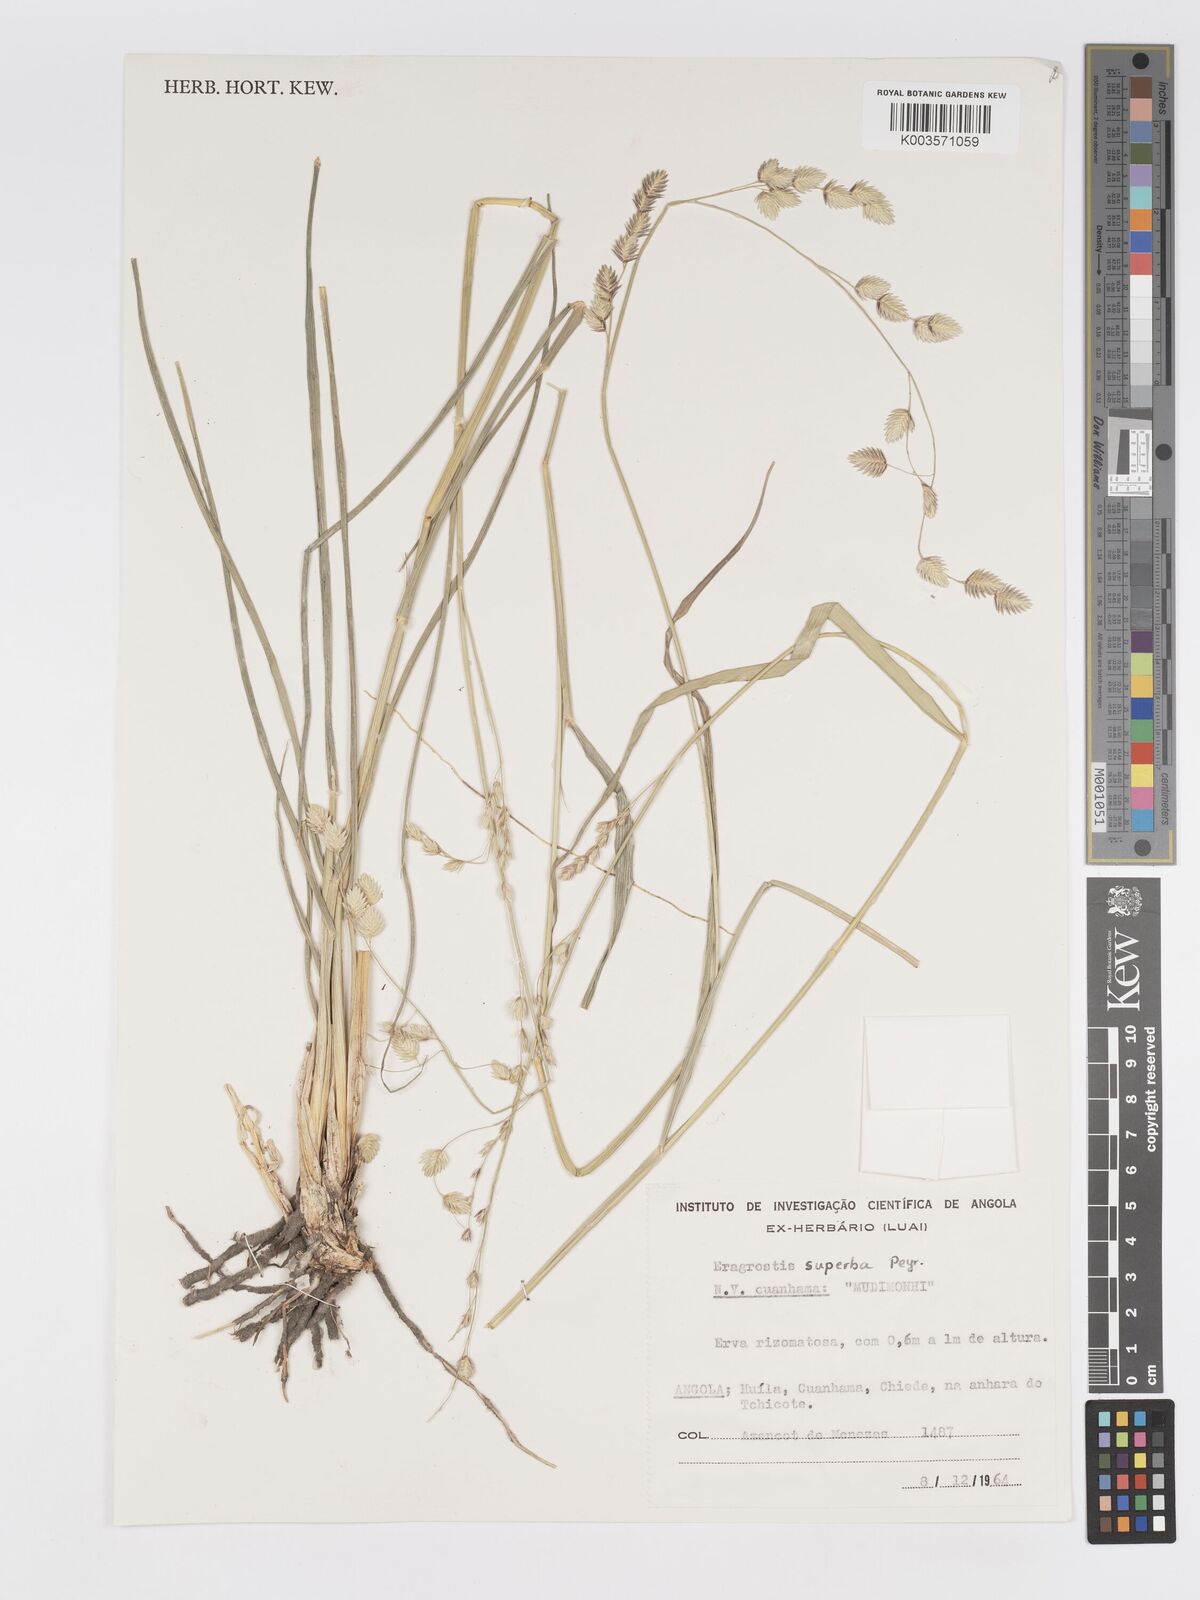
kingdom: Plantae
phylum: Tracheophyta
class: Liliopsida
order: Poales
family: Poaceae
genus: Eragrostis
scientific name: Eragrostis superba
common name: Wilman lovegrass
